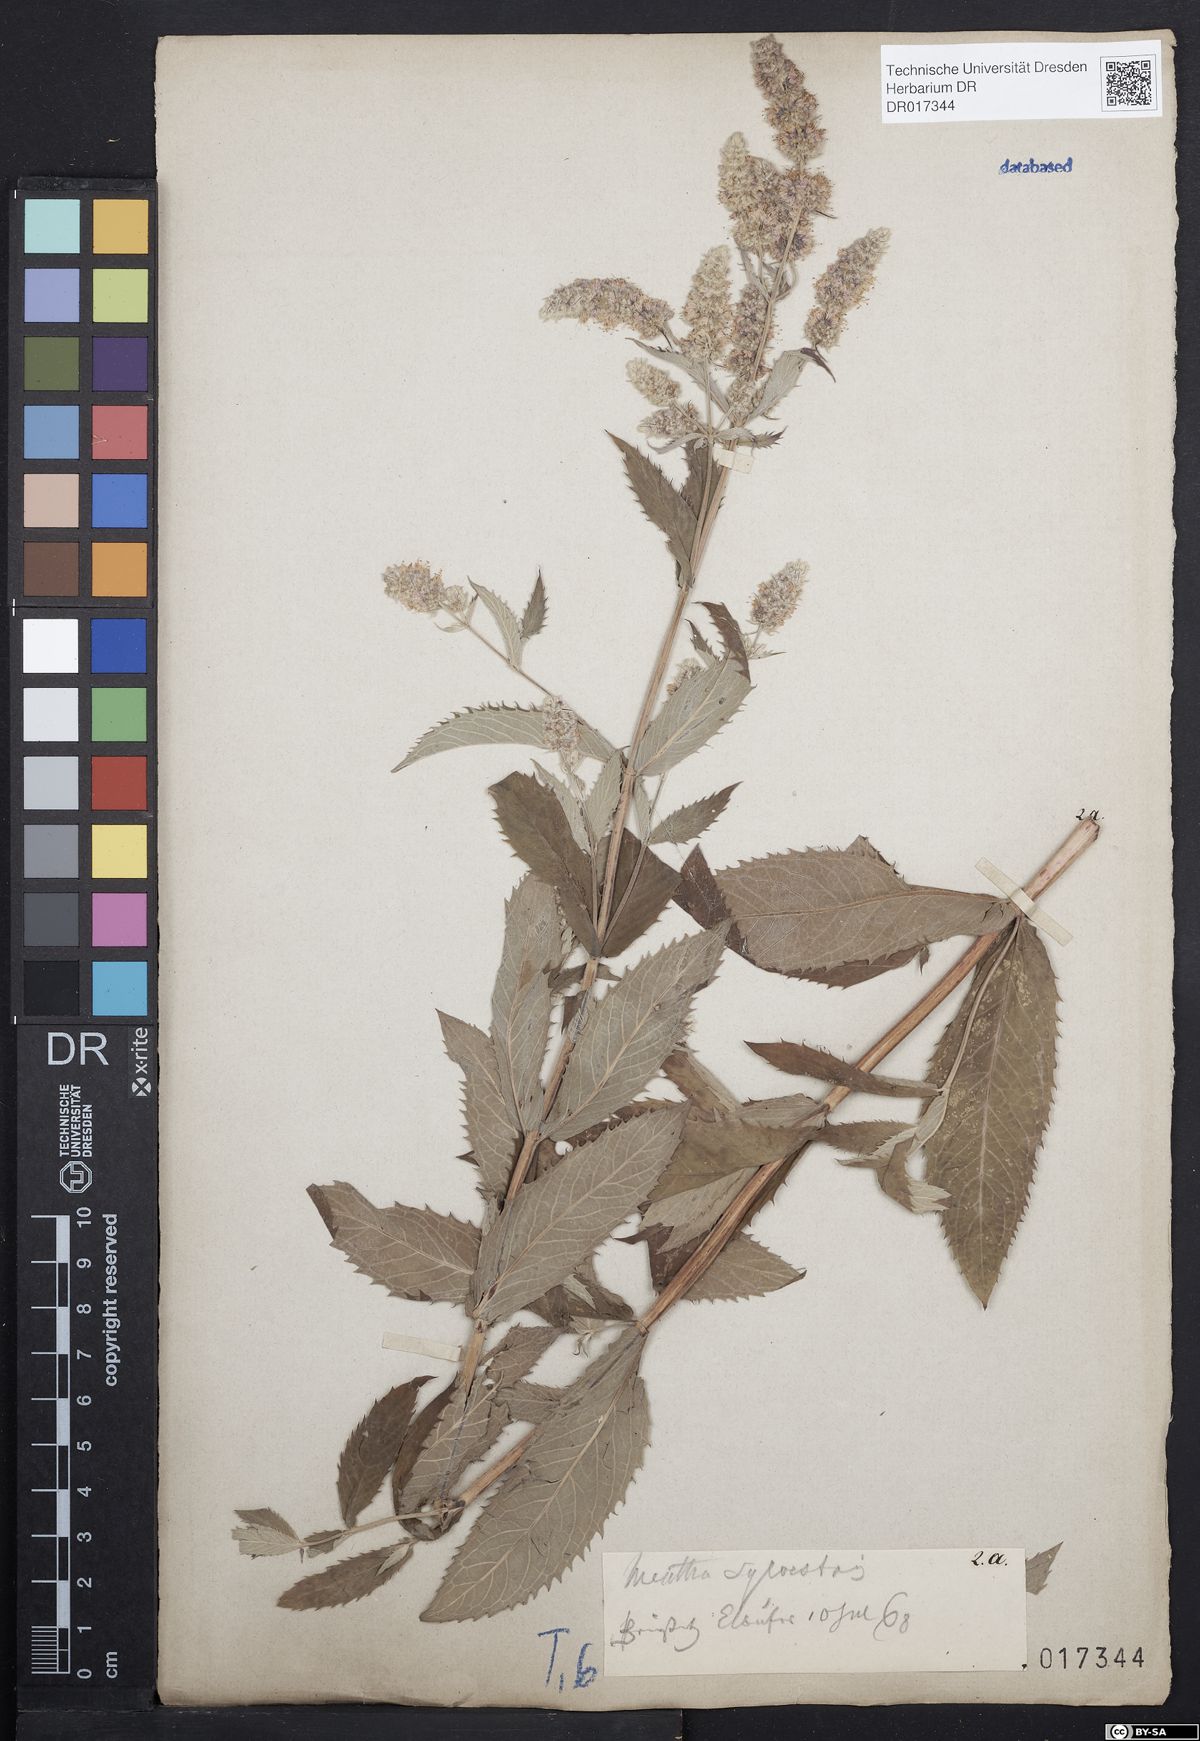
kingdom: Plantae
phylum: Tracheophyta
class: Magnoliopsida
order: Lamiales
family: Lamiaceae
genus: Mentha
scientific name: Mentha longifolia
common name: Horse mint
